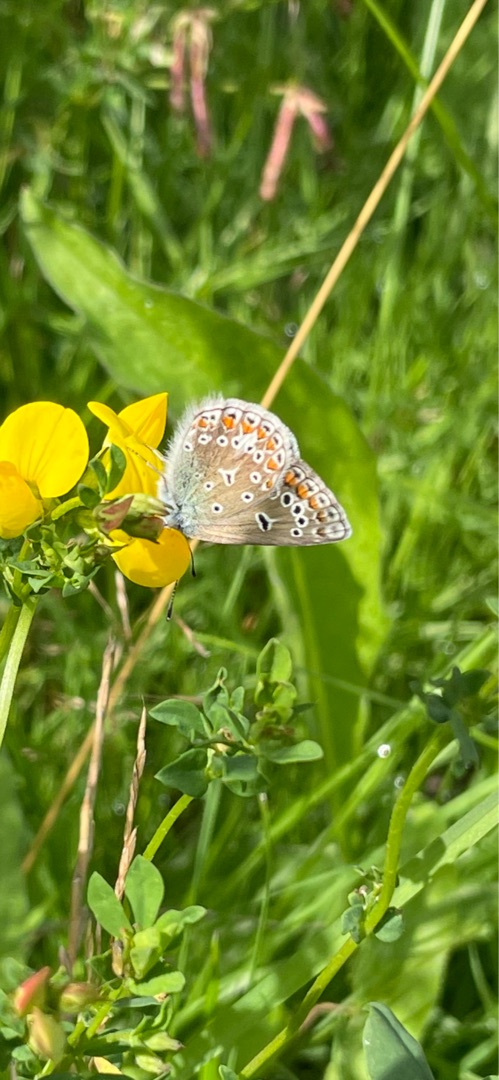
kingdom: Animalia
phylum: Arthropoda
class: Insecta
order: Lepidoptera
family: Lycaenidae
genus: Polyommatus
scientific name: Polyommatus icarus
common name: Almindelig blåfugl
